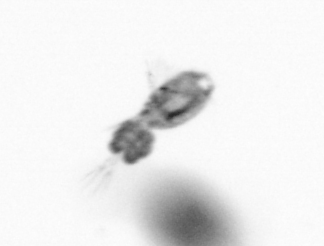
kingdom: Animalia
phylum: Arthropoda
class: Copepoda
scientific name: Copepoda
